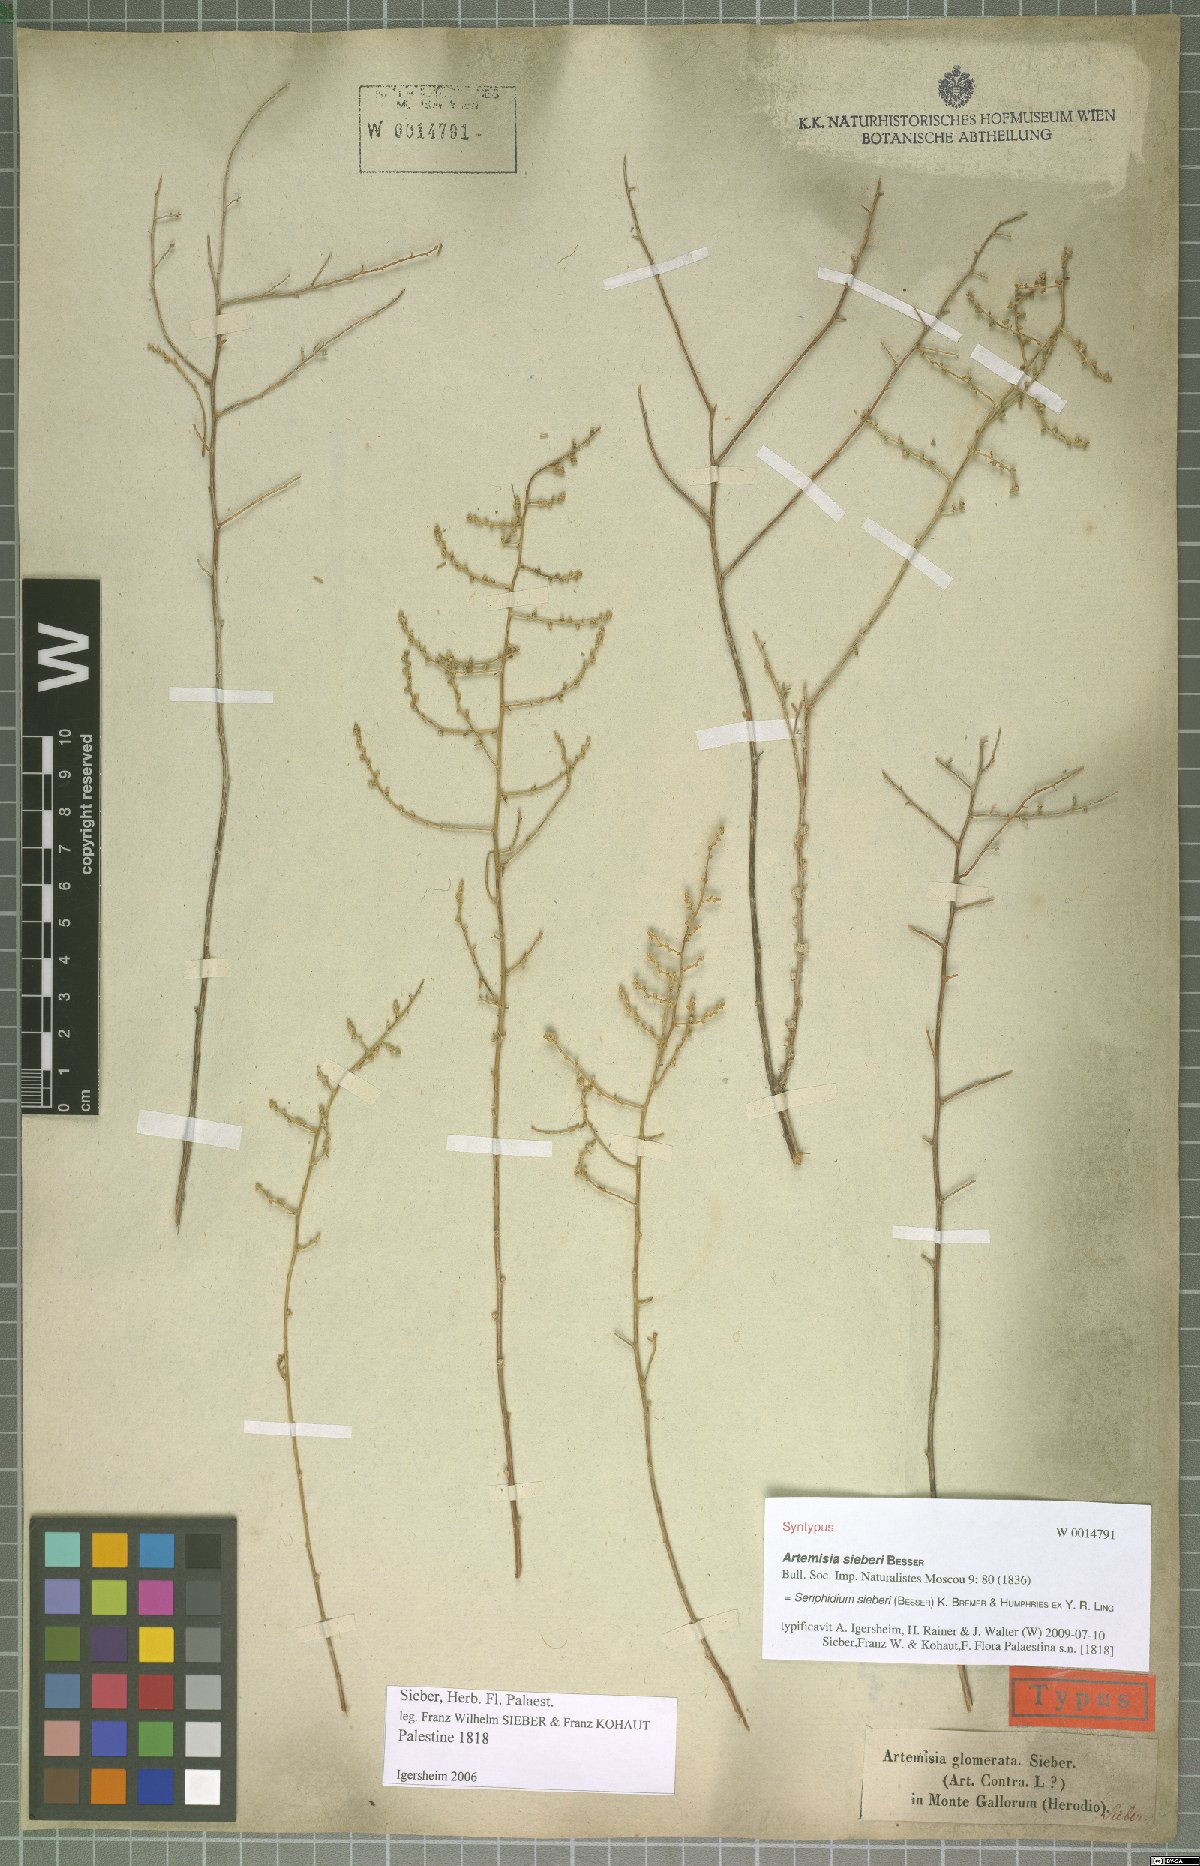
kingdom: Plantae
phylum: Tracheophyta
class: Magnoliopsida
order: Asterales
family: Asteraceae
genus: Artemisia
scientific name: Artemisia sieberi
